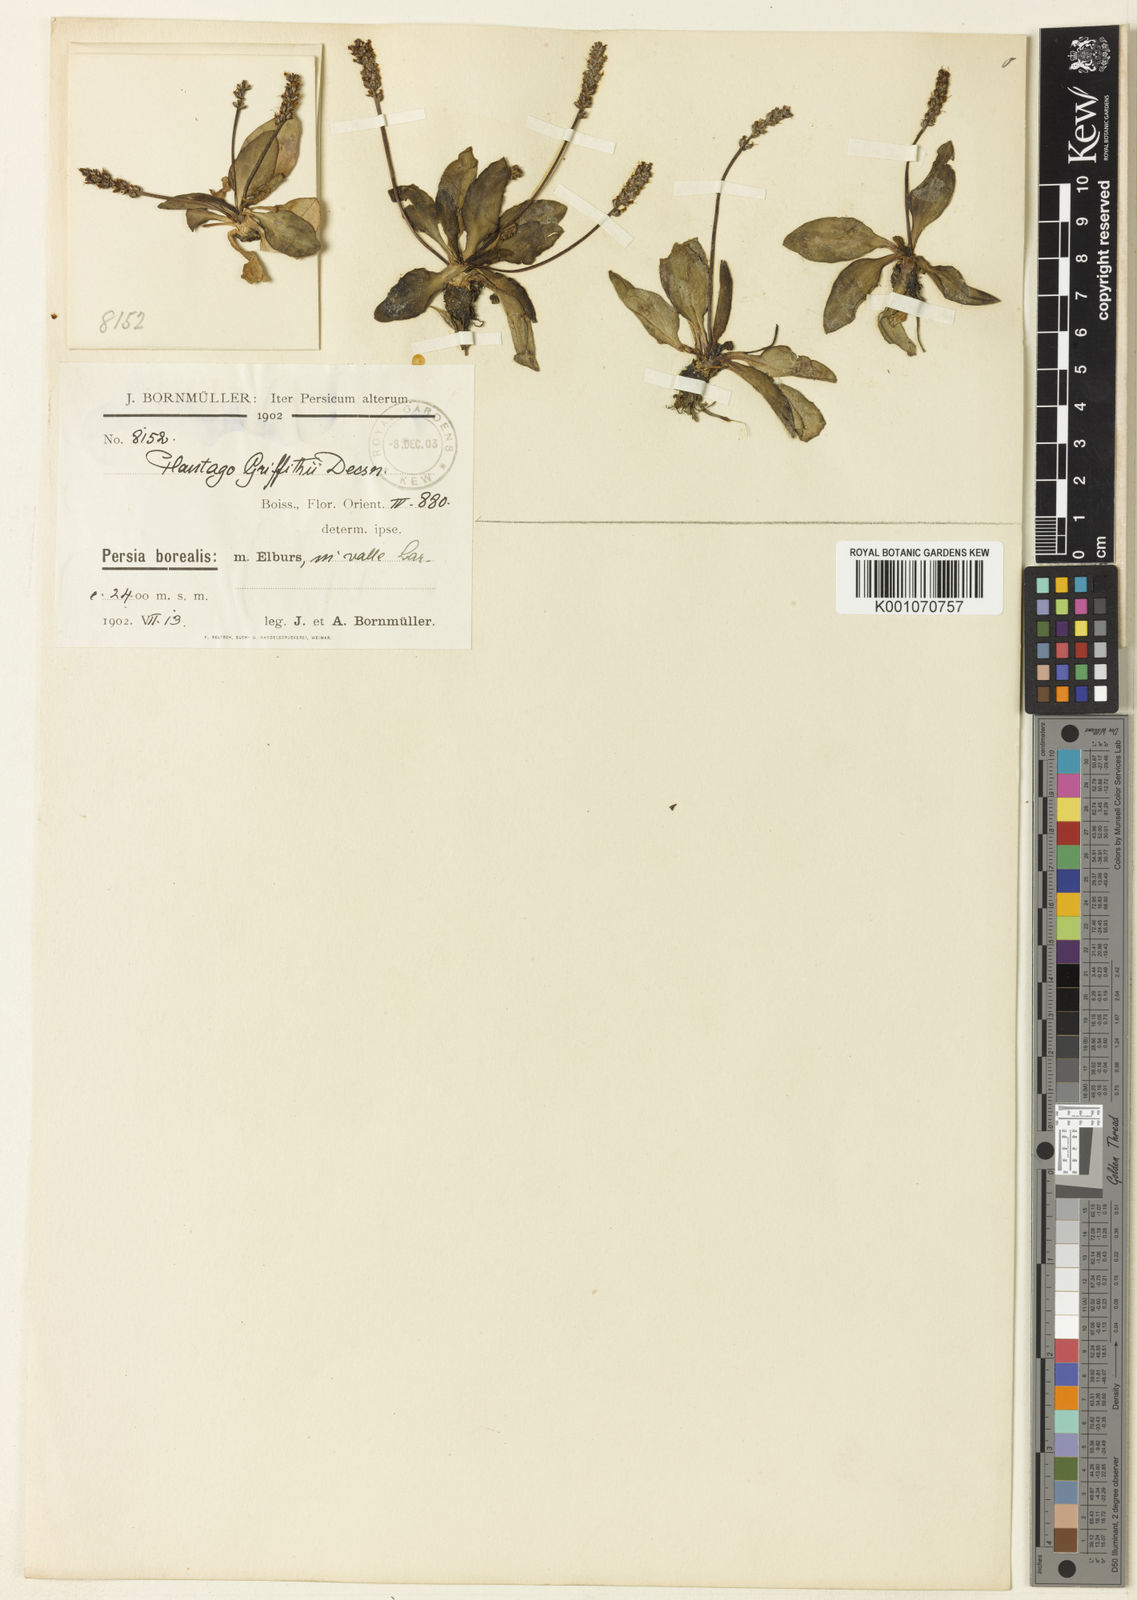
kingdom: Plantae
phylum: Tracheophyta
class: Magnoliopsida
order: Lamiales
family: Plantaginaceae
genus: Plantago
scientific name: Plantago
